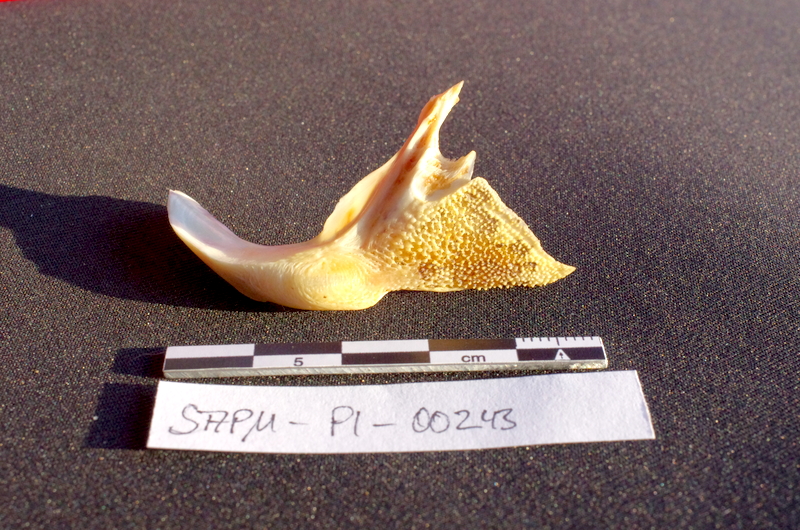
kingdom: Animalia
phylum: Chordata
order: Siluriformes
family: Mochokidae
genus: Synodontis
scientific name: Synodontis caudovittatus
